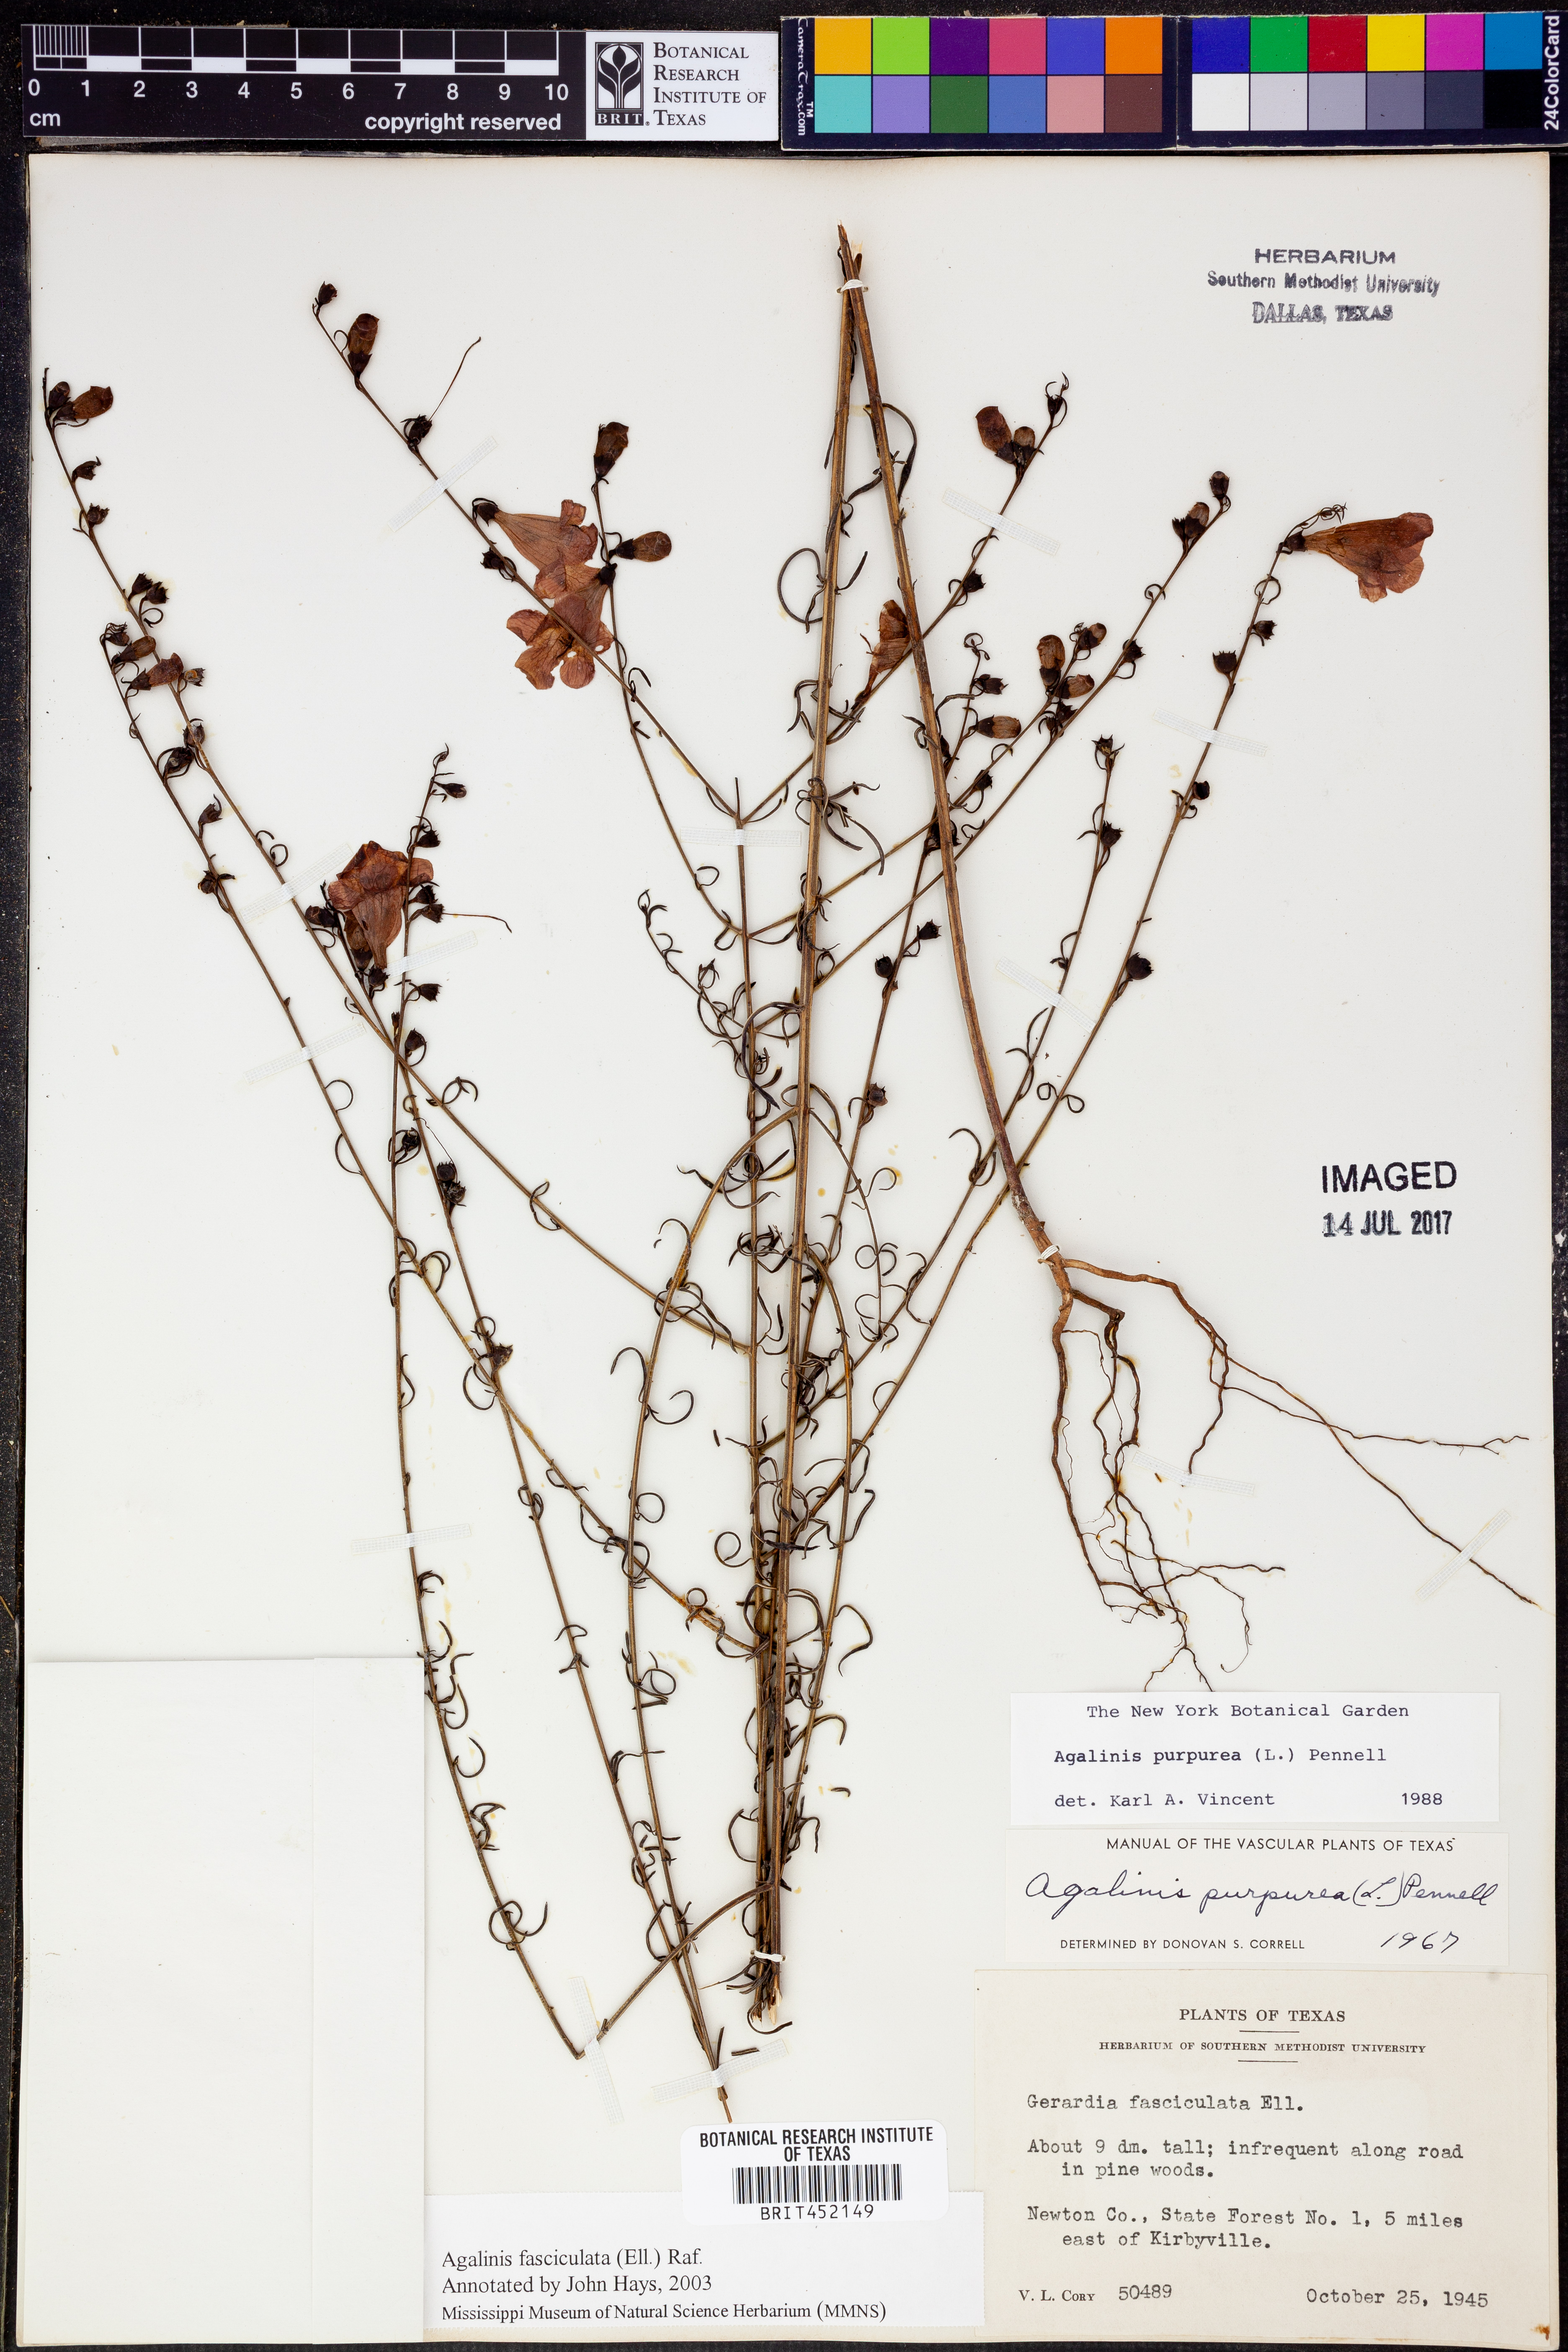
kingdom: Plantae
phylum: Tracheophyta
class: Magnoliopsida
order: Lamiales
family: Orobanchaceae
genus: Agalinis
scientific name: Agalinis fasciculata
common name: Beach false foxglove
